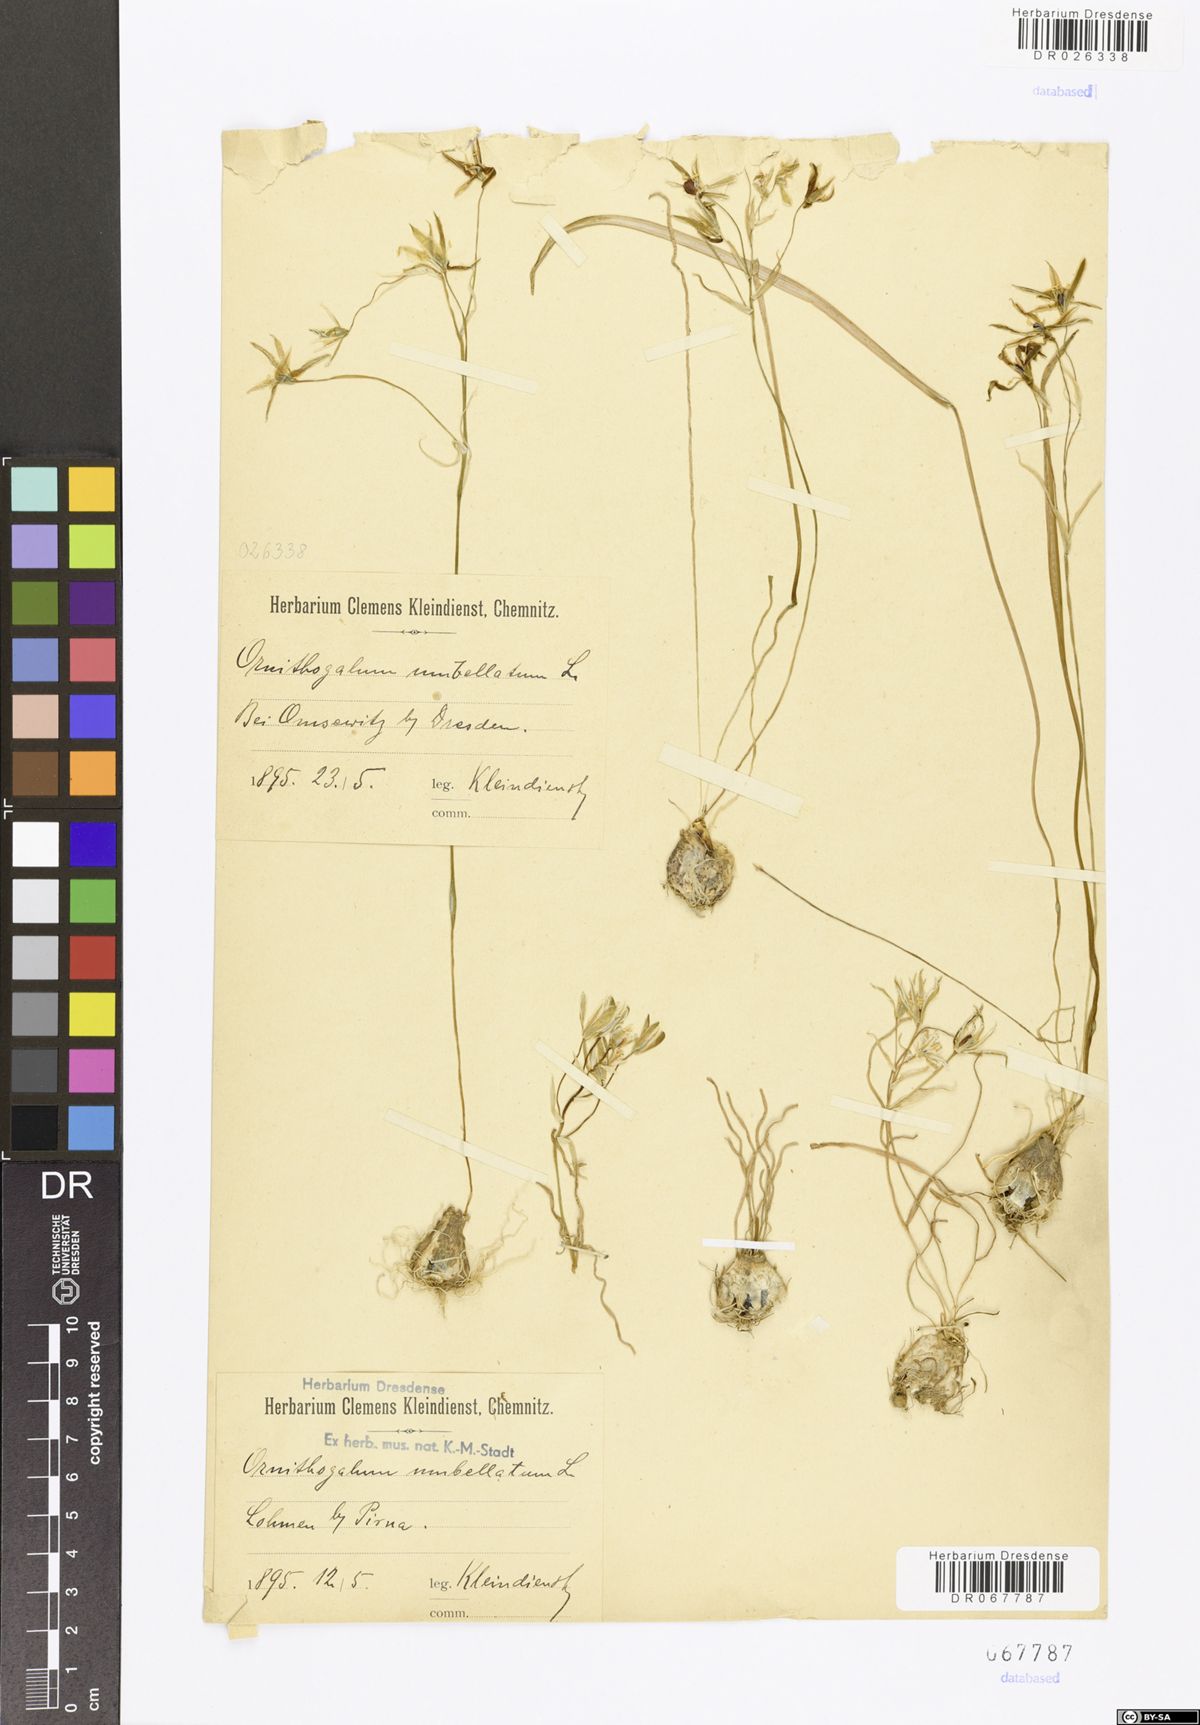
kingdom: Plantae
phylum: Tracheophyta
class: Liliopsida
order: Asparagales
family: Asparagaceae
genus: Ornithogalum
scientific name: Ornithogalum umbellatum
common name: Garden star-of-bethlehem
